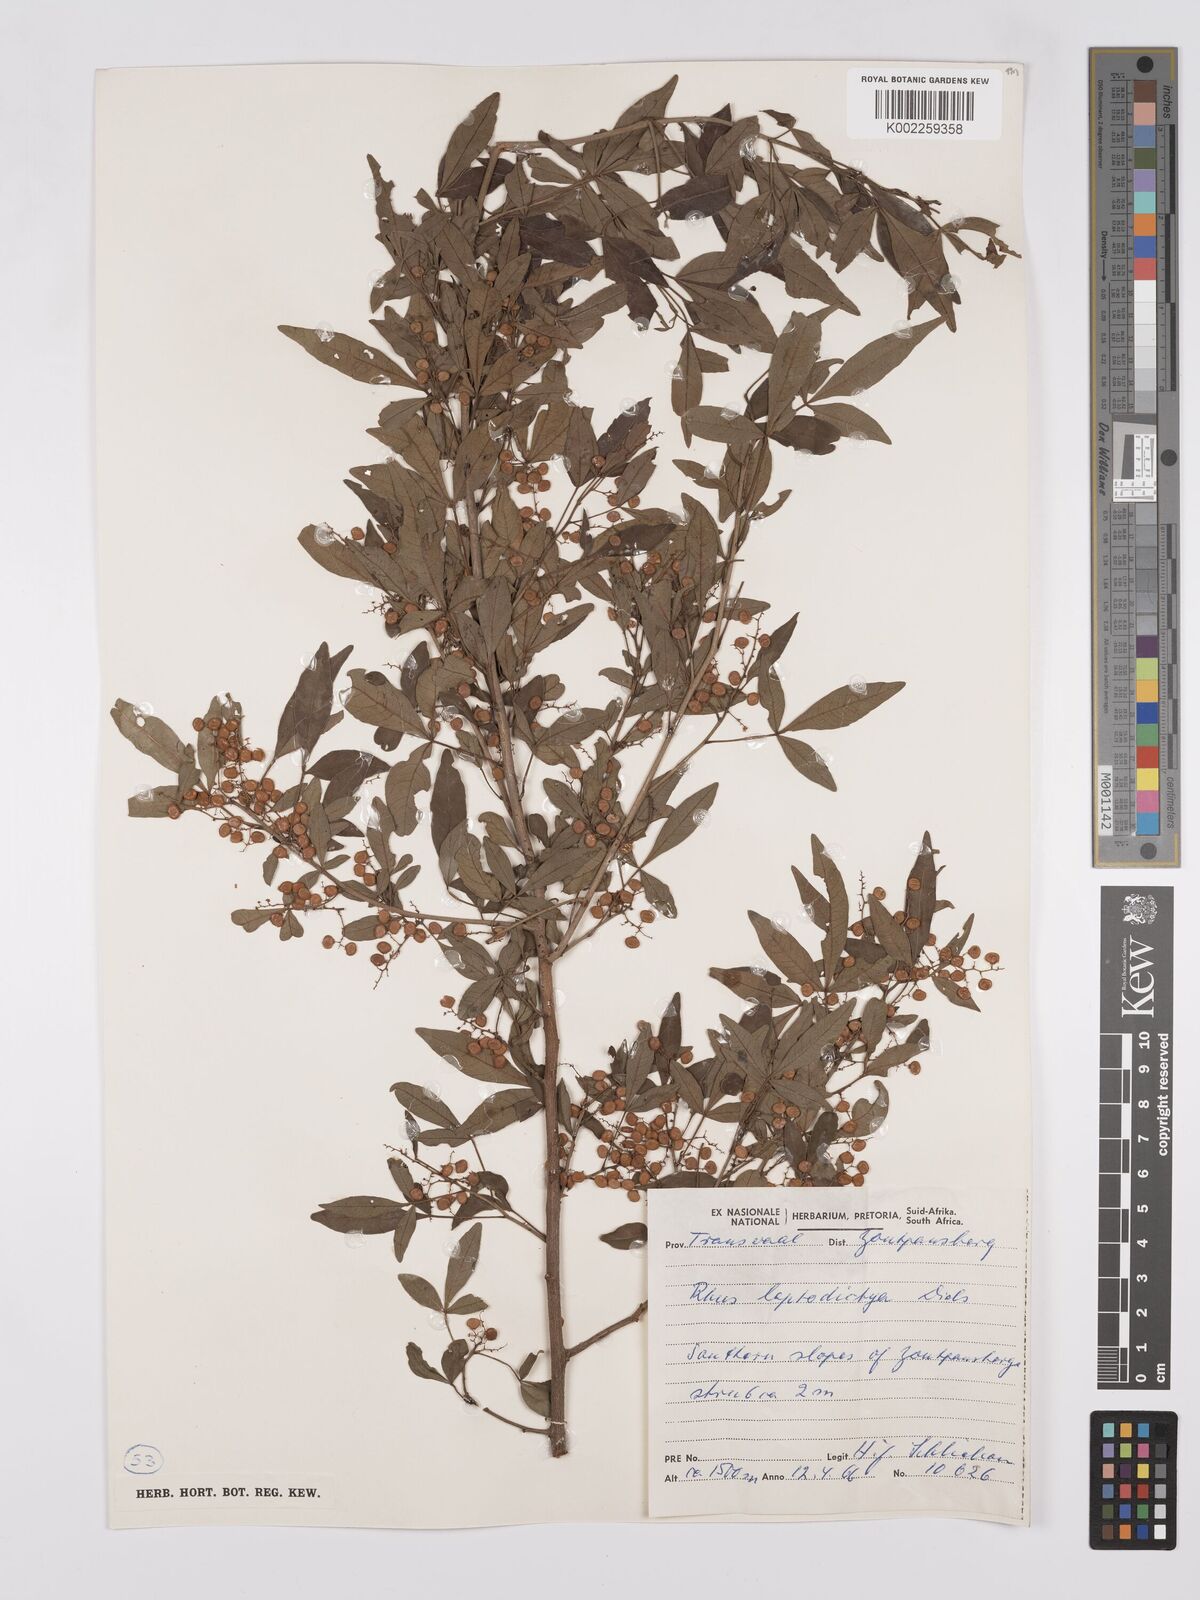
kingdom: Plantae
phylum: Tracheophyta
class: Magnoliopsida
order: Sapindales
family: Anacardiaceae
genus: Searsia
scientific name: Searsia leptodictya
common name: Mountain karee
